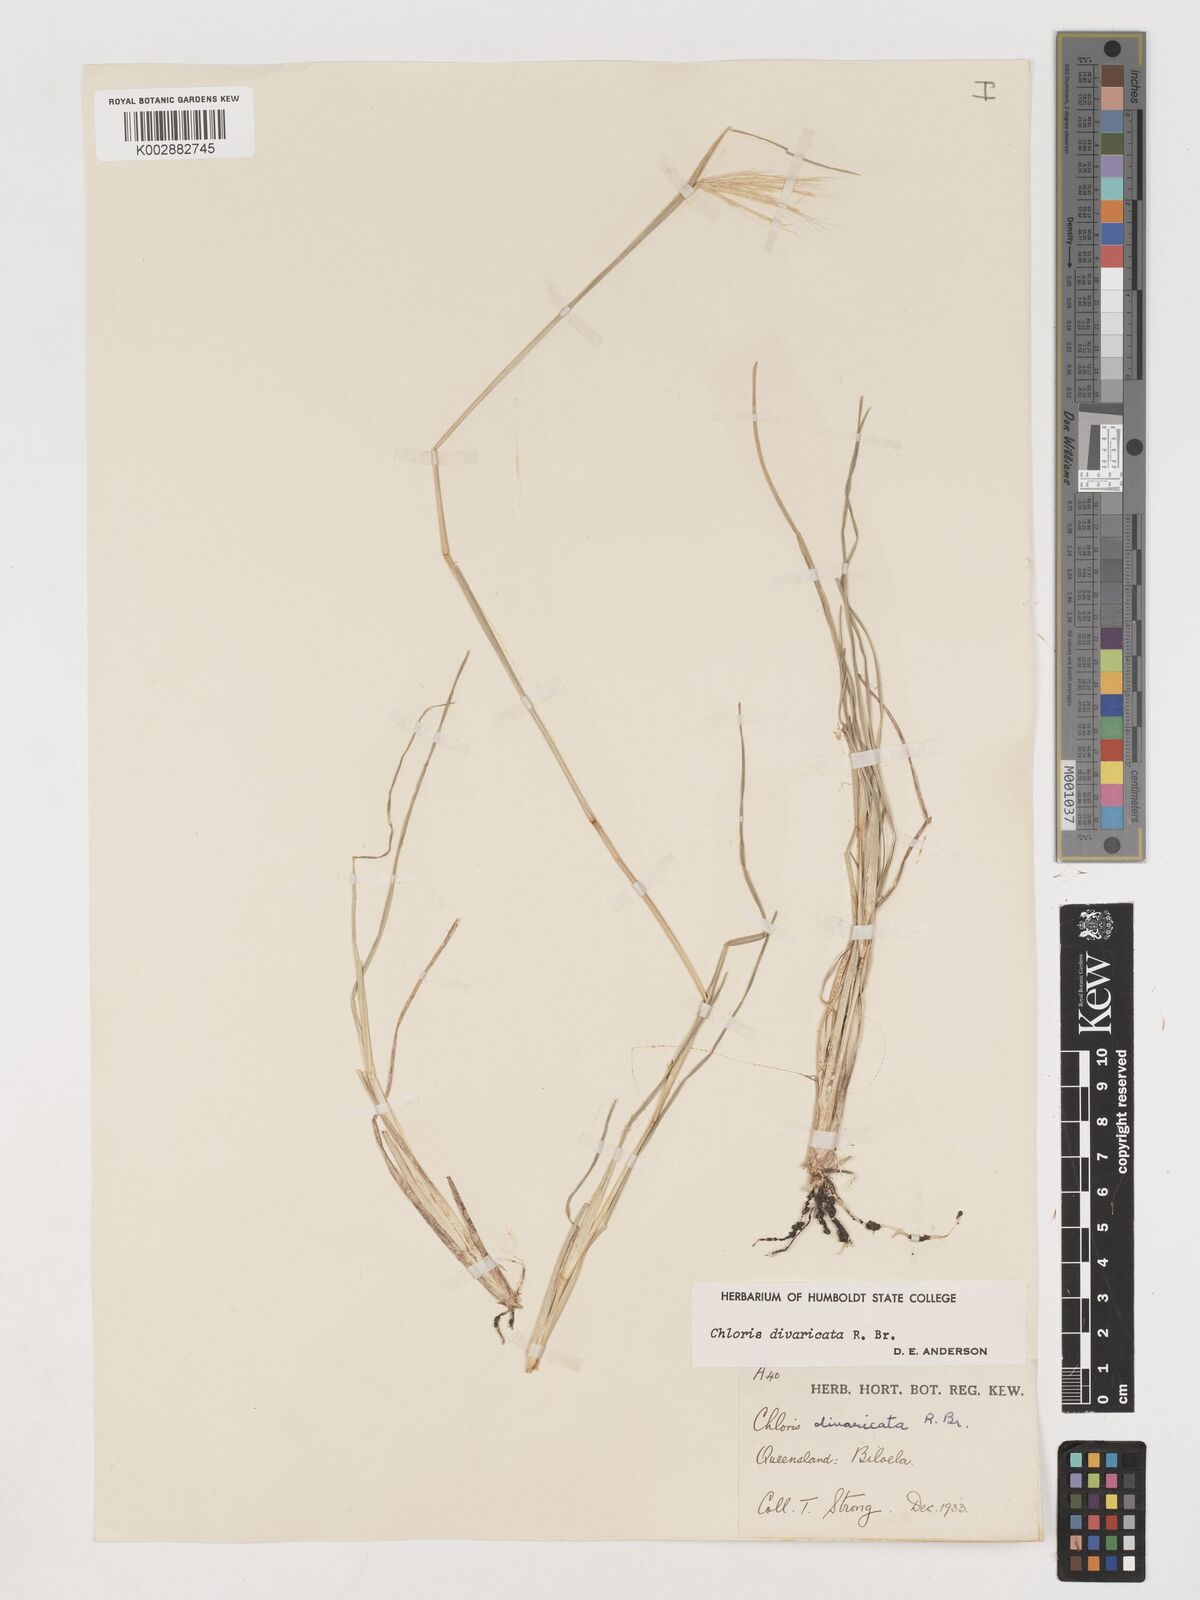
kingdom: Plantae
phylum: Tracheophyta
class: Liliopsida
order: Poales
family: Poaceae
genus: Chloris
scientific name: Chloris divaricata
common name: Spreading windmill grass
